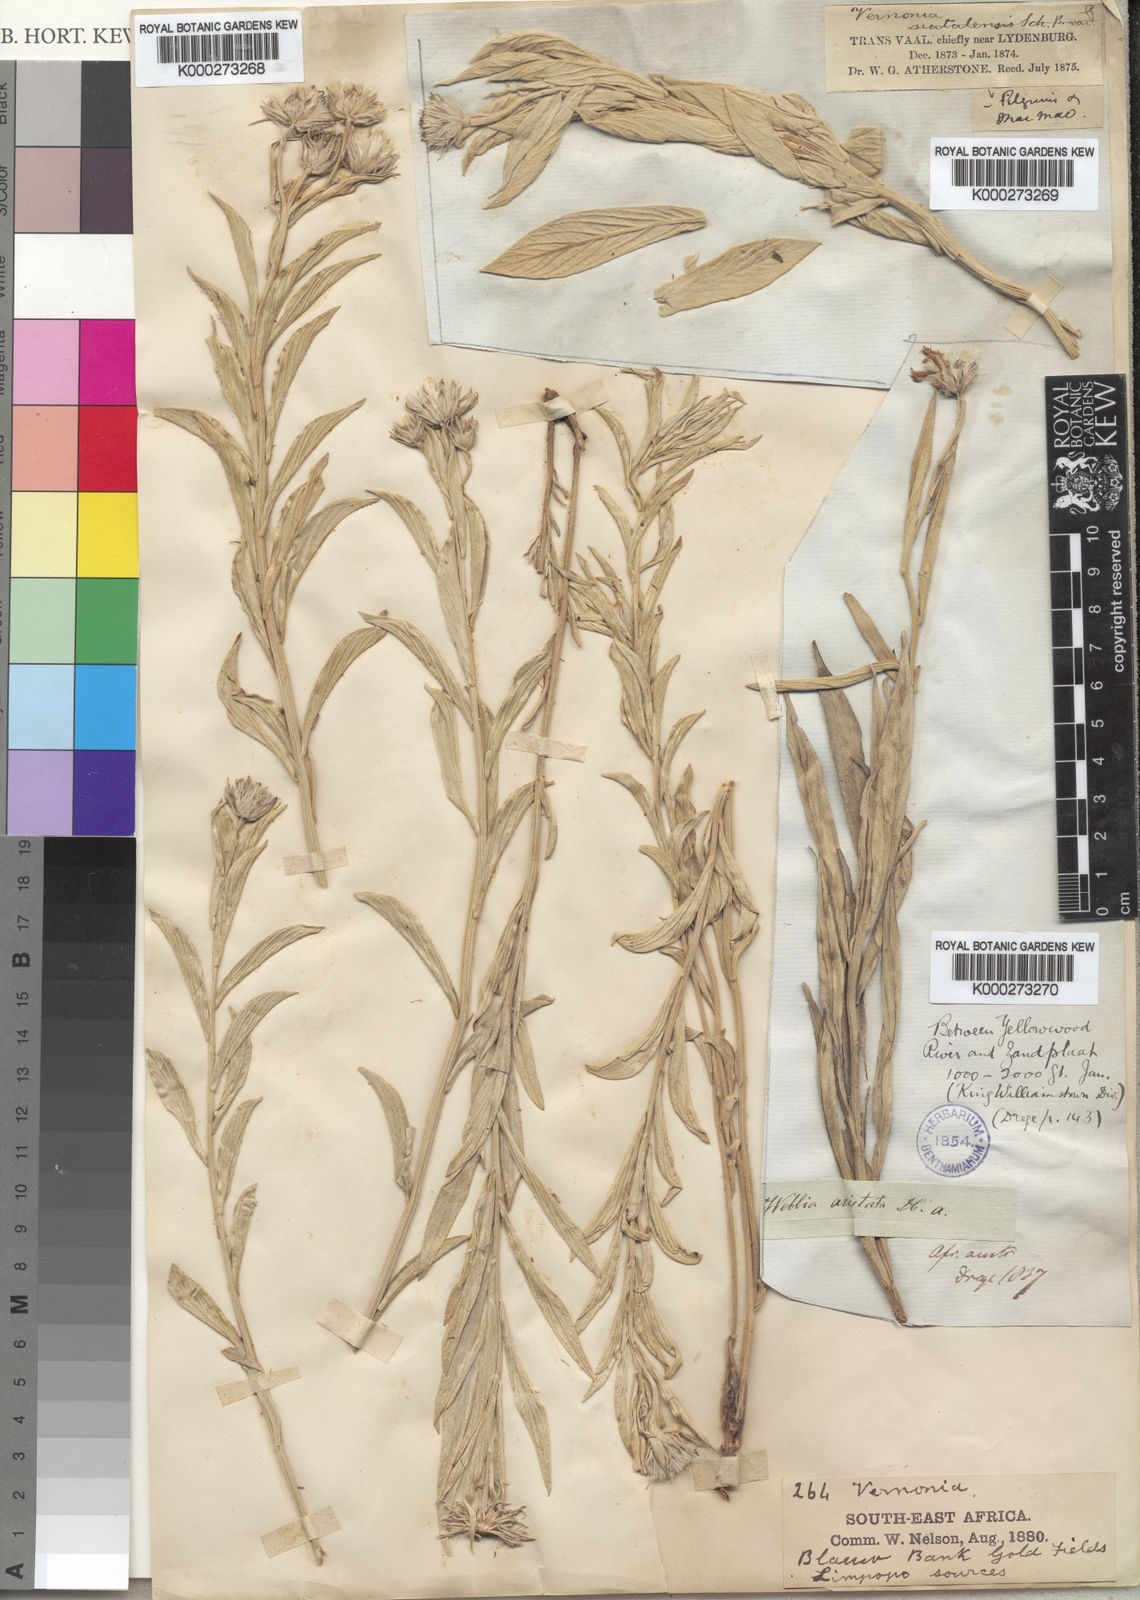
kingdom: Plantae
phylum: Tracheophyta
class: Magnoliopsida
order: Asterales
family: Asteraceae
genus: Hilliardiella
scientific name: Hilliardiella aristata
